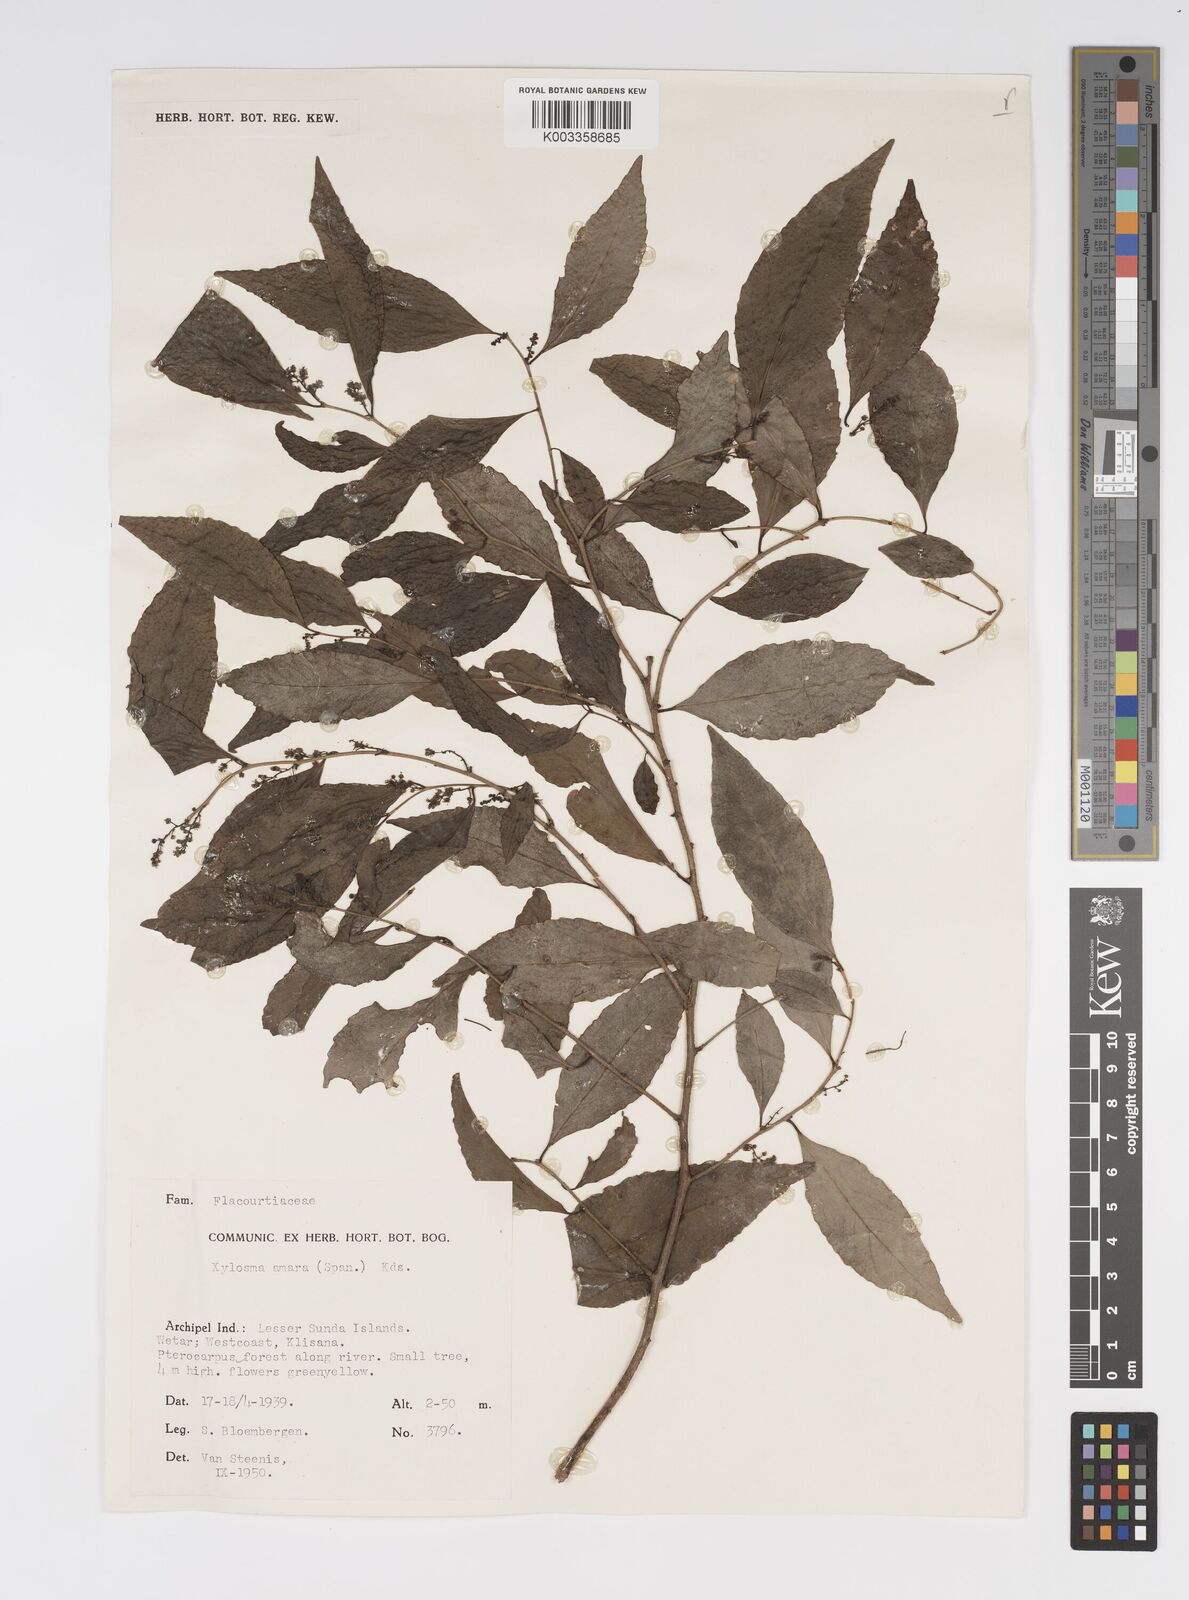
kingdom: Plantae
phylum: Tracheophyta
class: Magnoliopsida
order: Malpighiales
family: Salicaceae
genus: Xylosma
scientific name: Xylosma luzonensis
